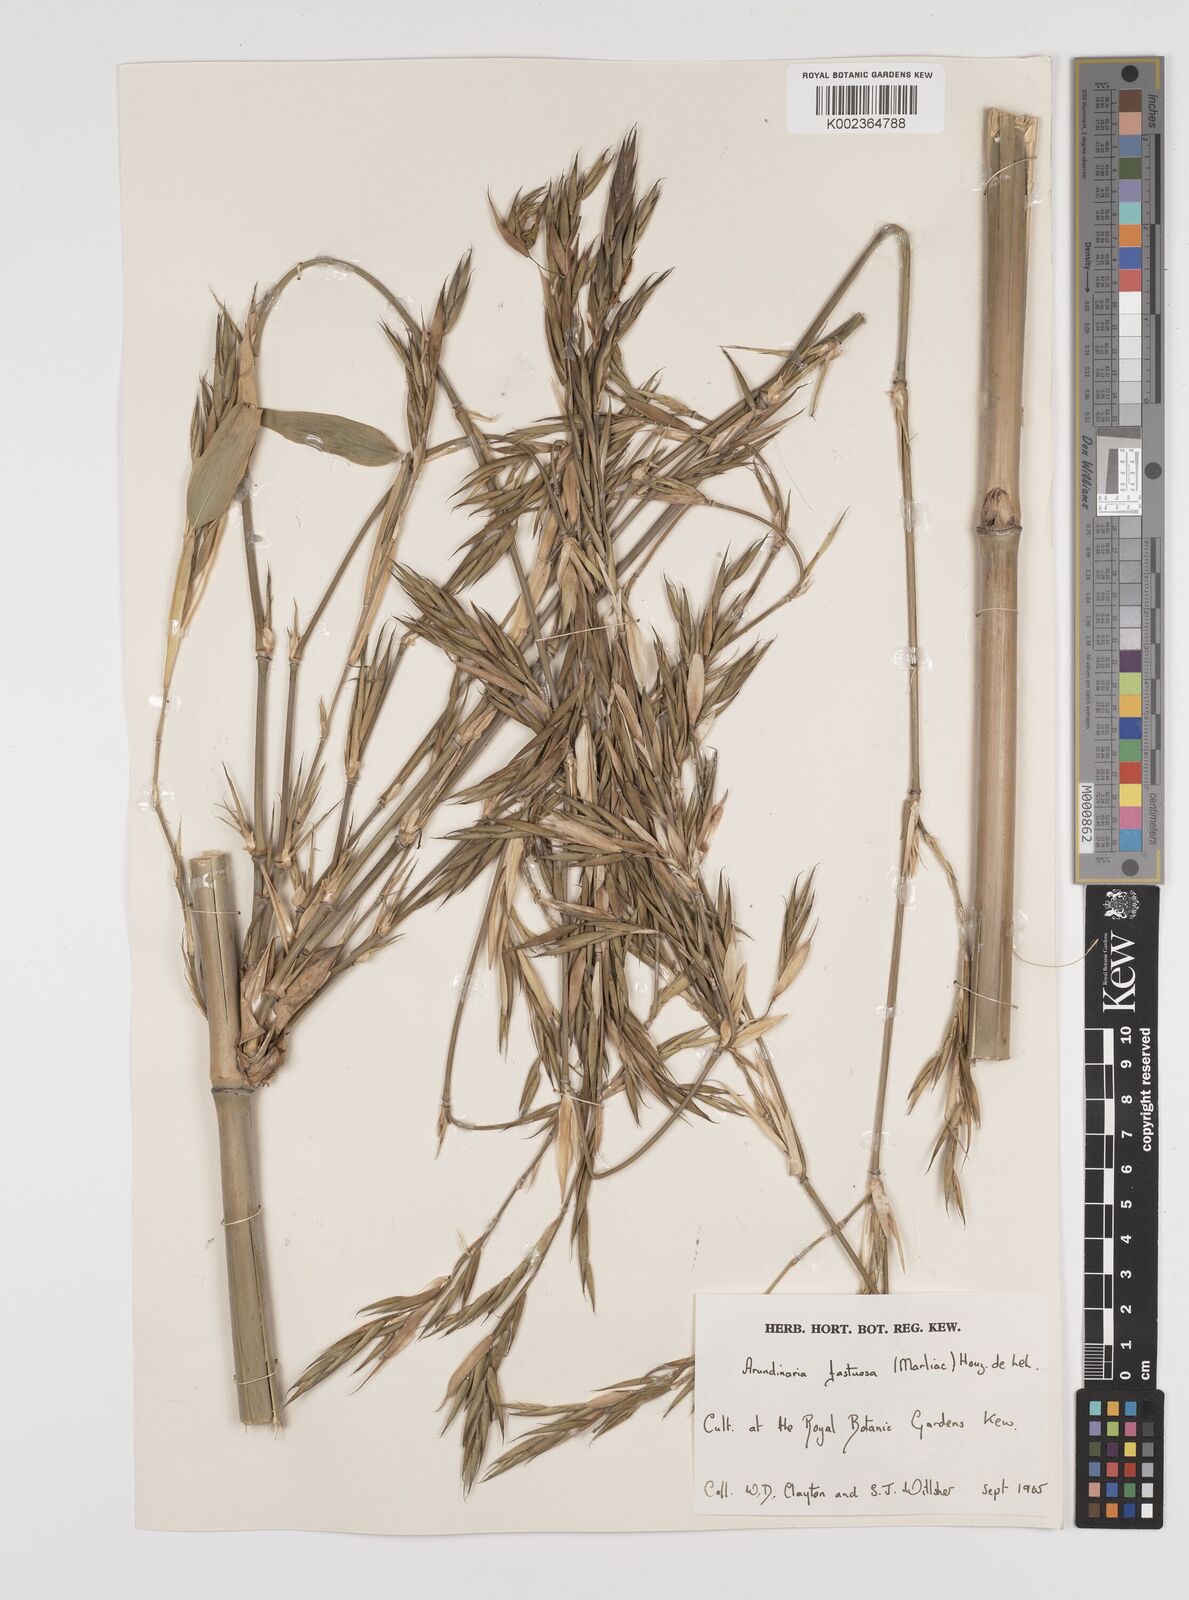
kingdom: Plantae
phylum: Tracheophyta
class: Liliopsida
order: Poales
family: Poaceae
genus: Semiarundinaria
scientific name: Semiarundinaria
